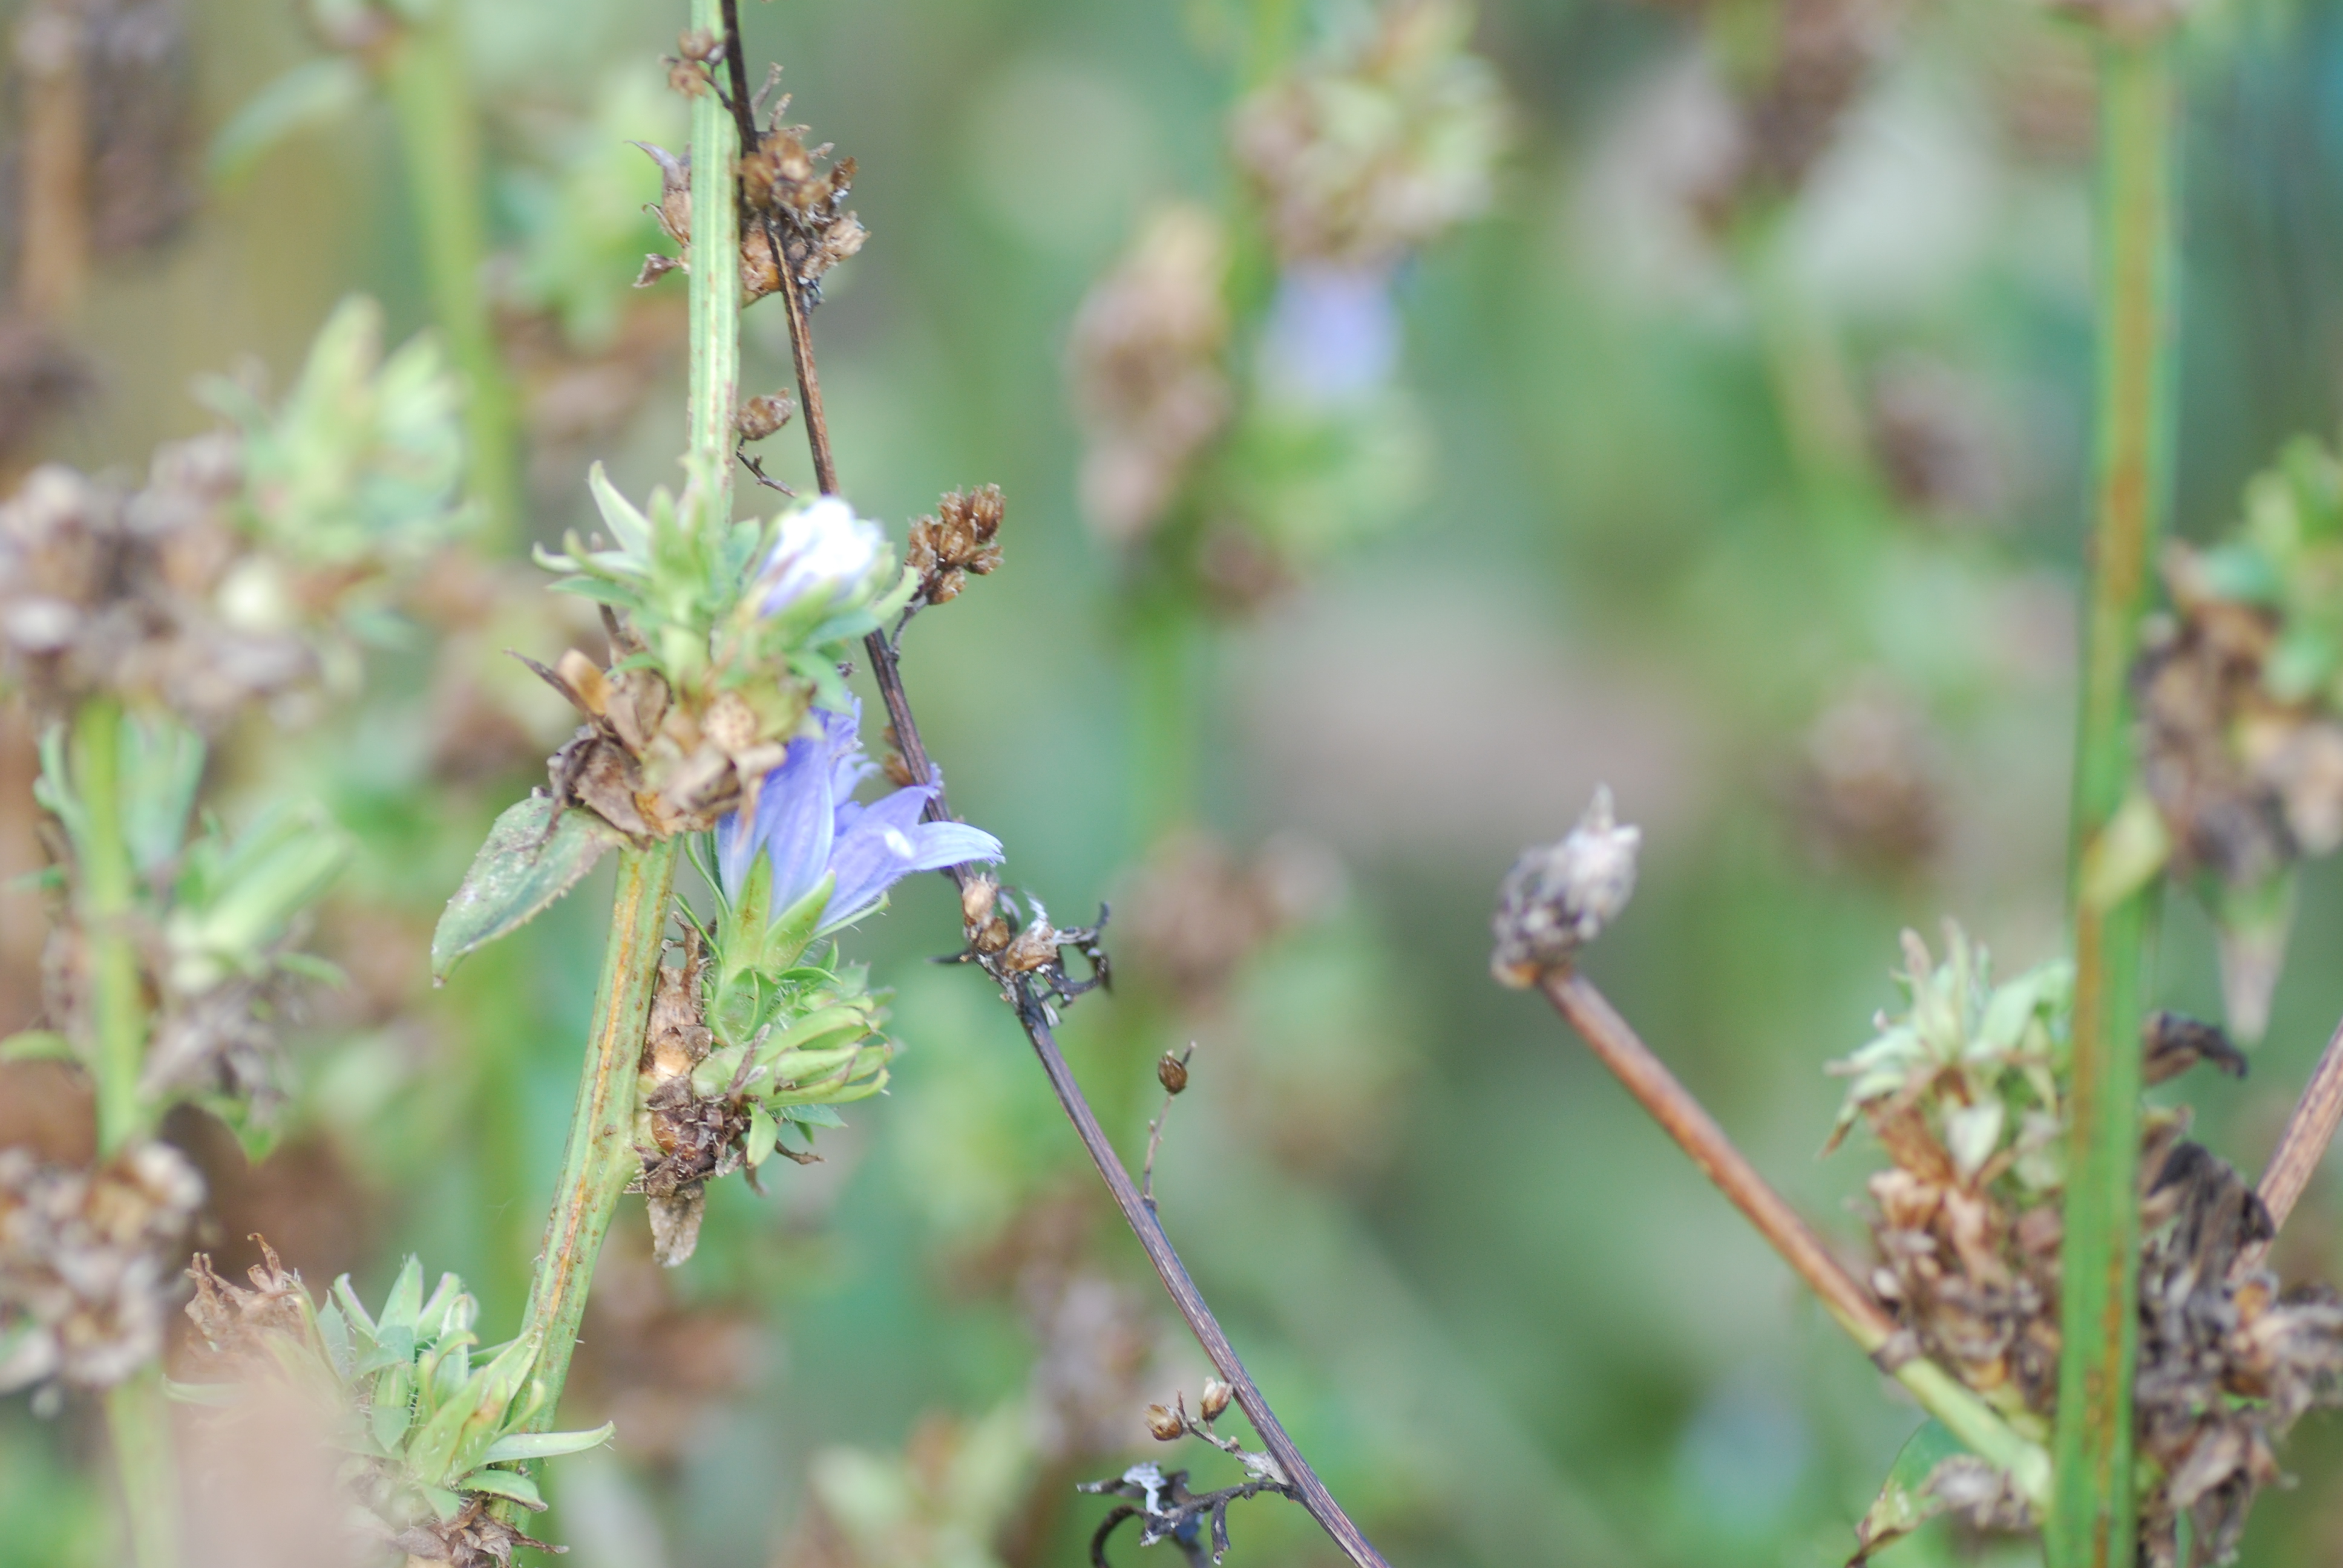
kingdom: Plantae
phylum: Tracheophyta
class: Magnoliopsida
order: Asterales
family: Asteraceae
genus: Cichorium
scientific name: Cichorium intybus
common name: Chicory
